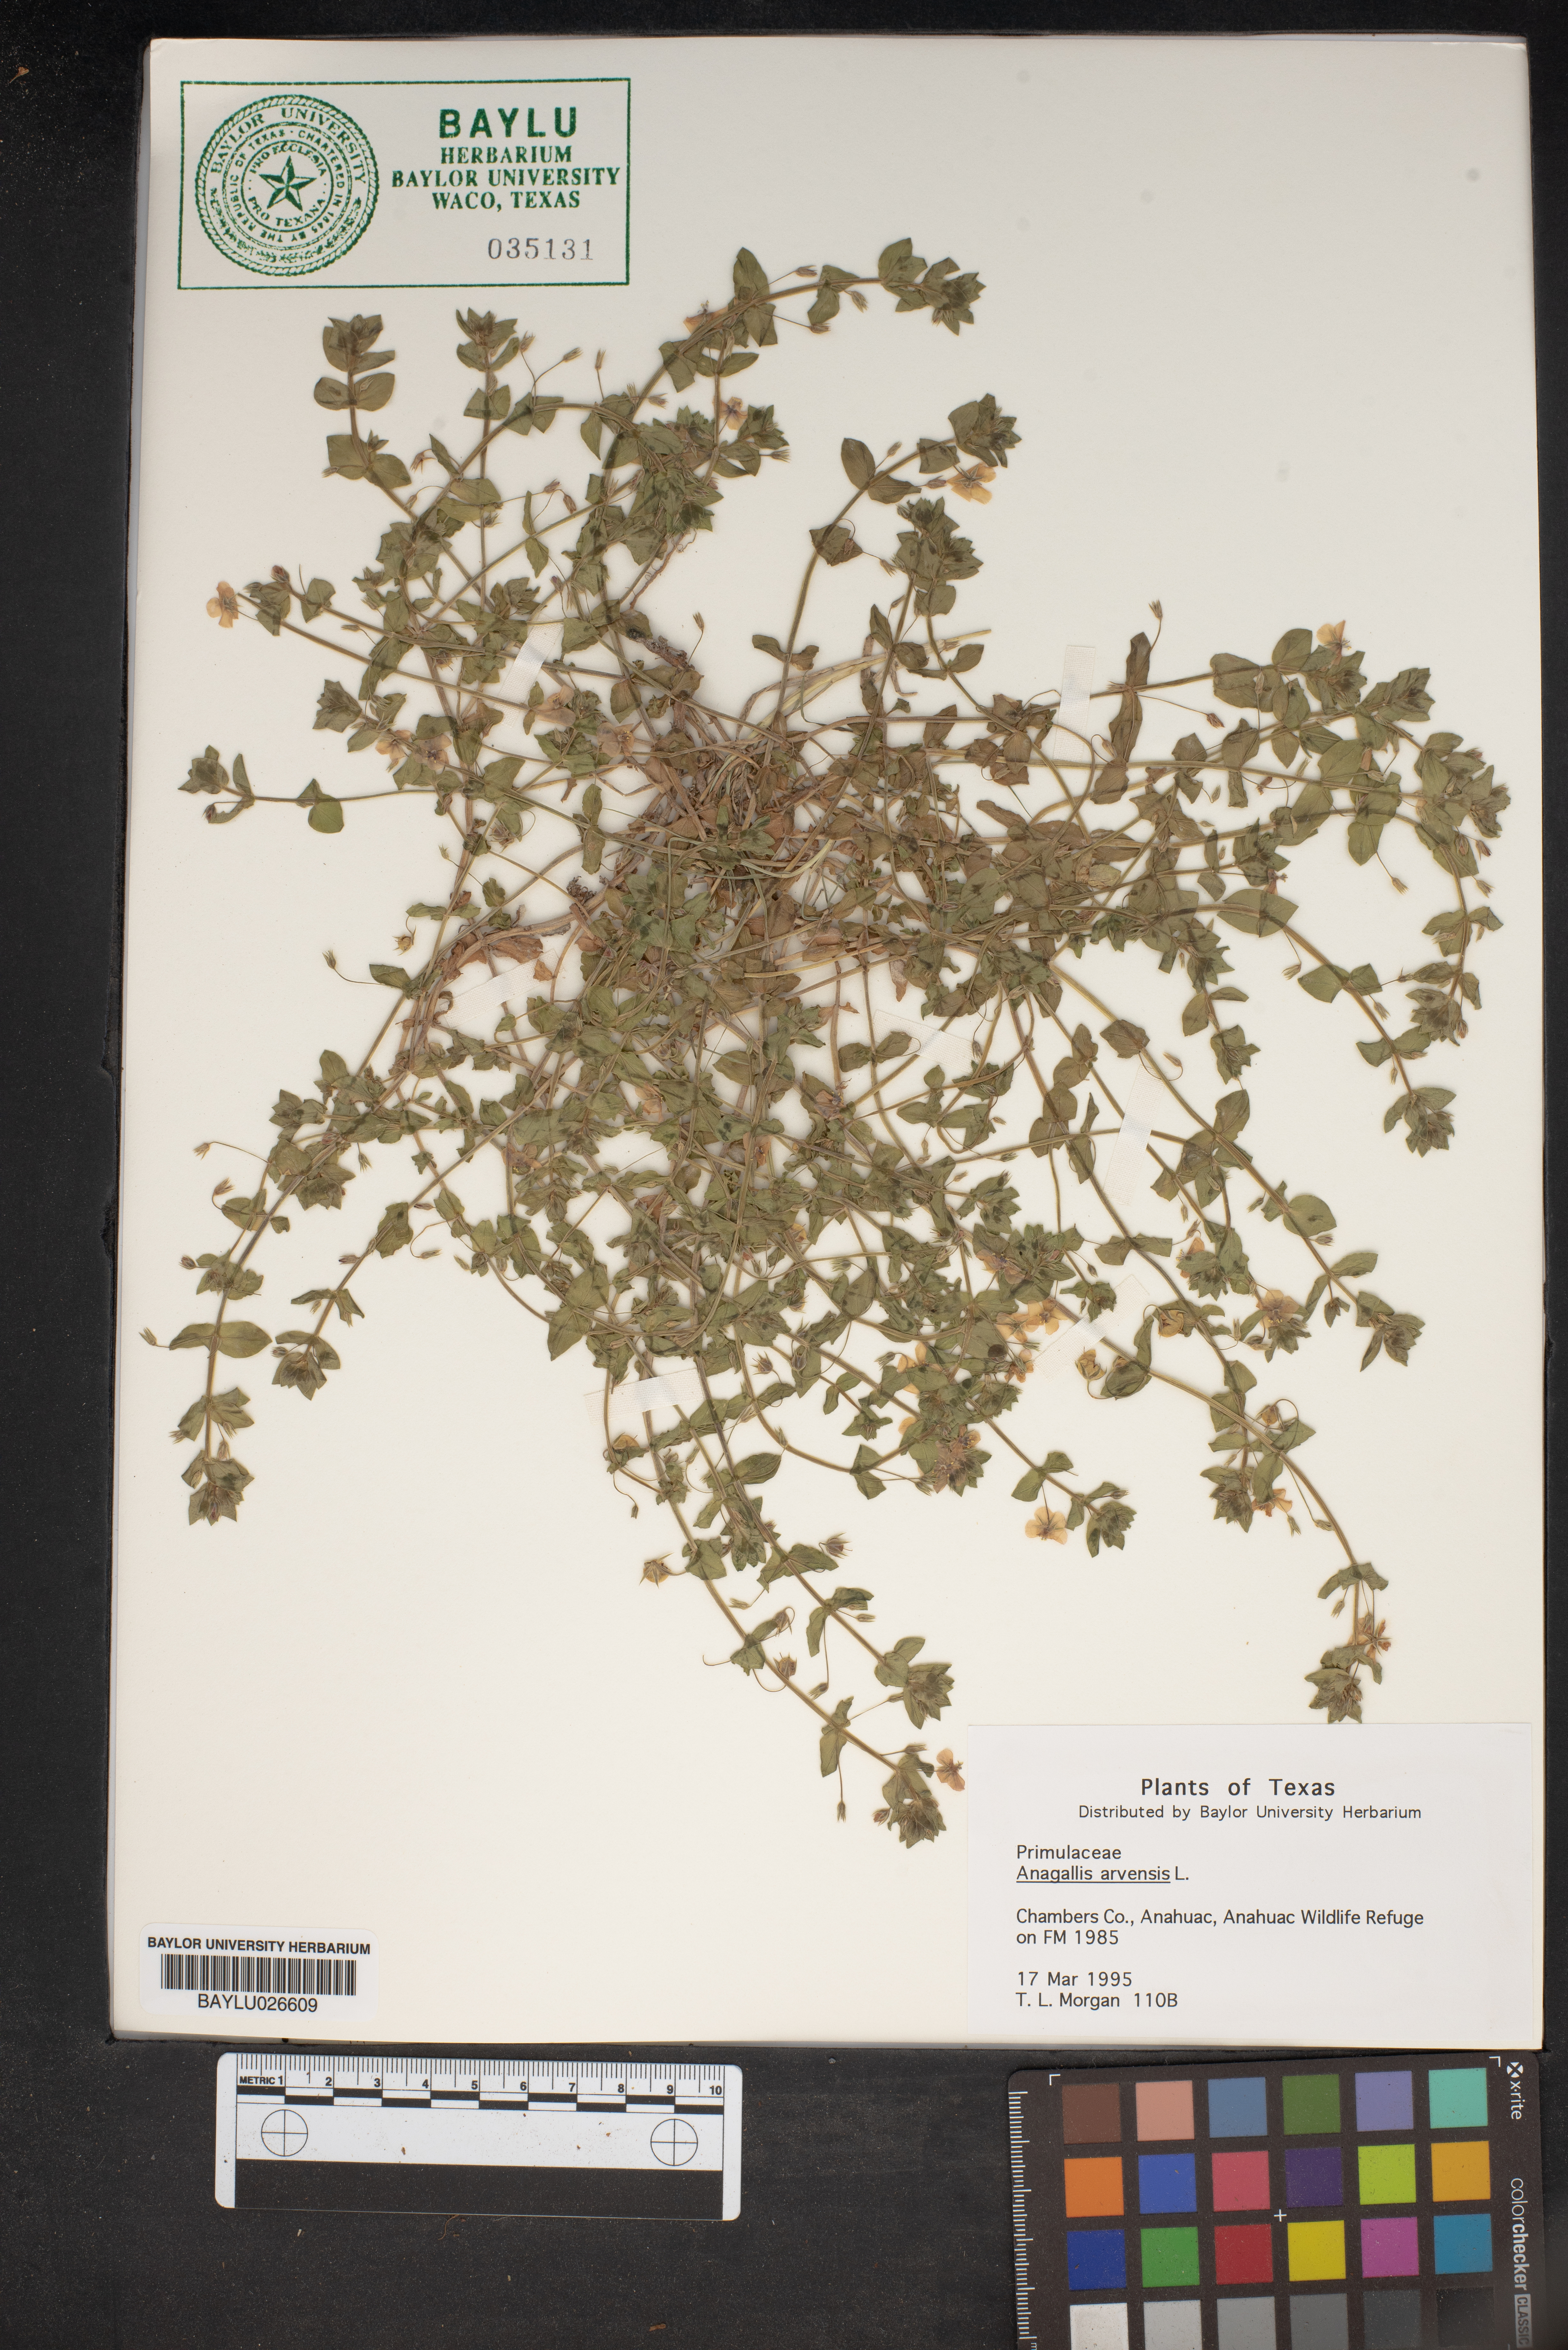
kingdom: Plantae
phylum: Tracheophyta
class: Magnoliopsida
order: Ericales
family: Primulaceae
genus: Lysimachia
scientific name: Lysimachia arvensis
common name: Scarlet pimpernel
